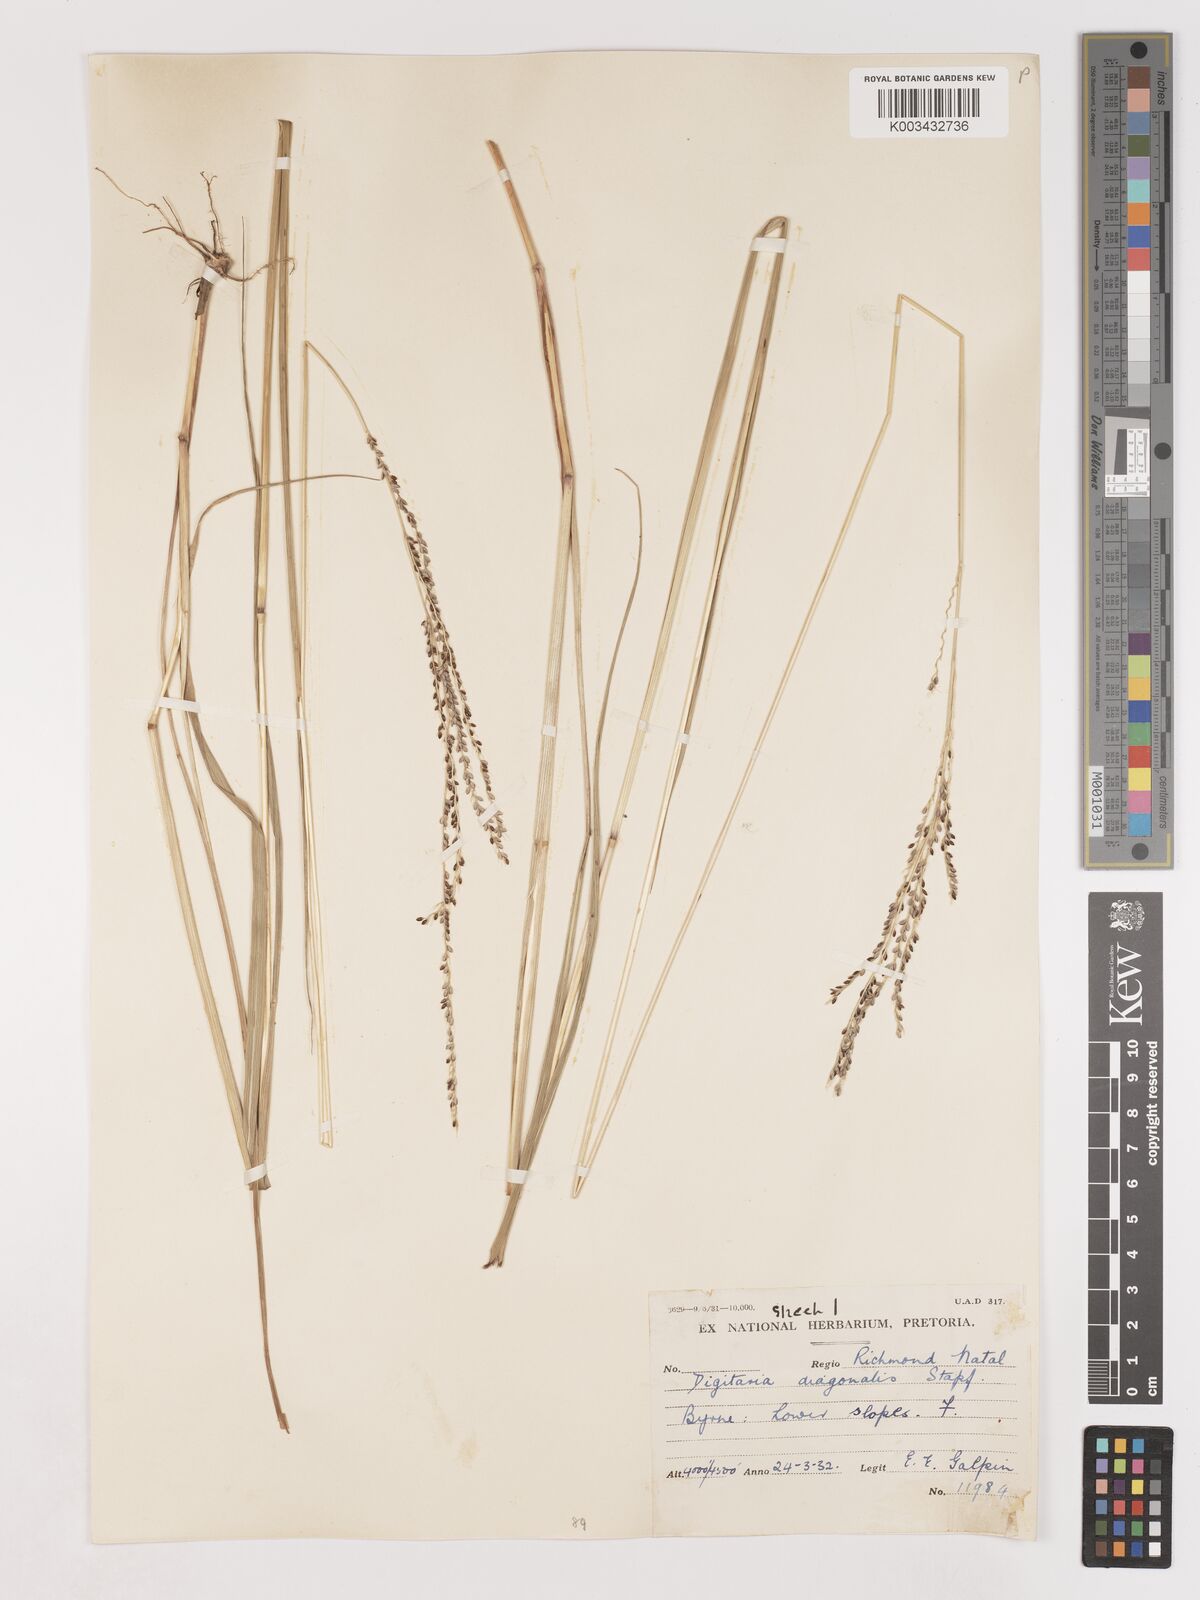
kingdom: Plantae
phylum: Tracheophyta
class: Liliopsida
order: Poales
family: Poaceae
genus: Digitaria
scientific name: Digitaria diagonalis
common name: Brown-seed finger grass
